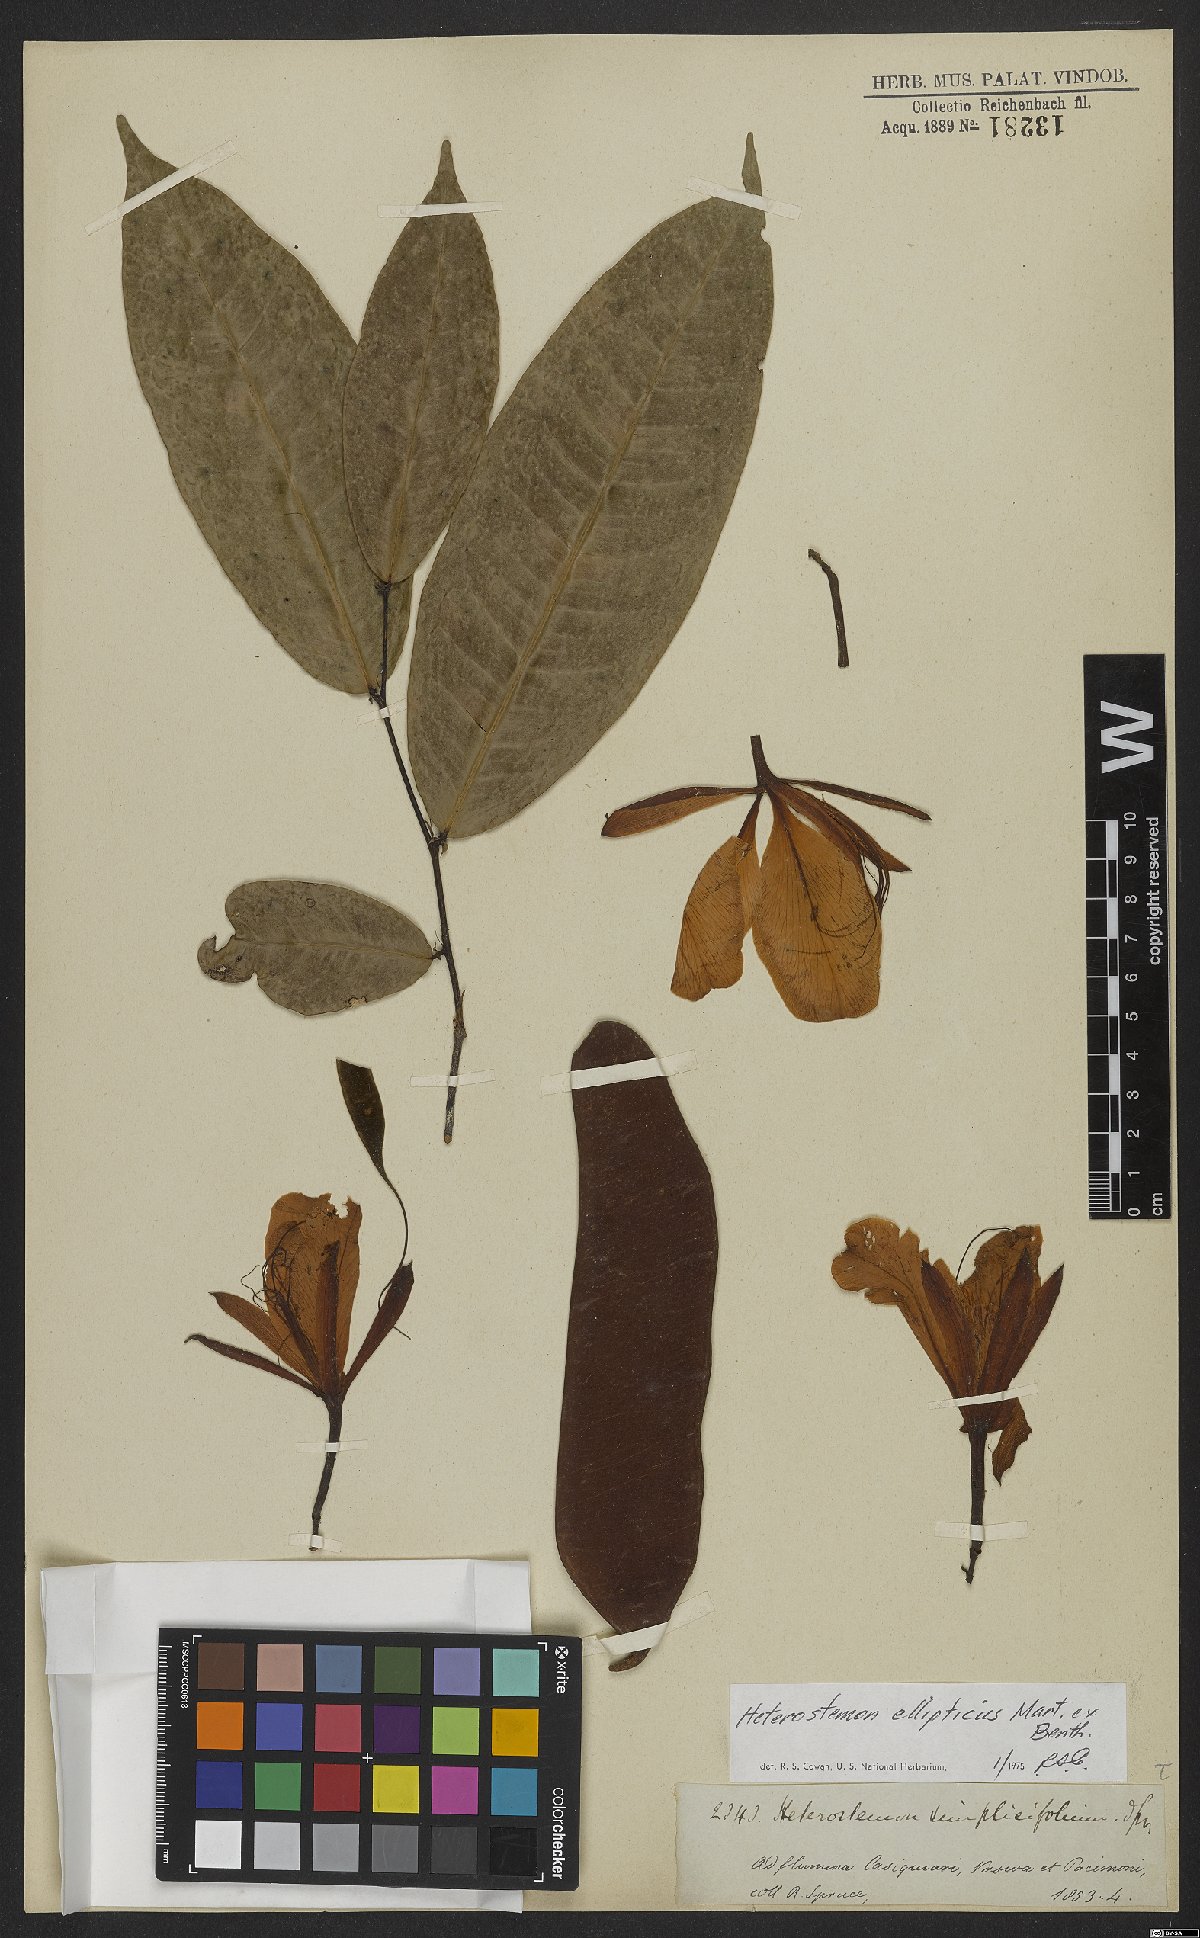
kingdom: Plantae
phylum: Tracheophyta
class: Magnoliopsida
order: Fabales
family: Fabaceae
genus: Heterostemon
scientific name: Heterostemon ellipticus
